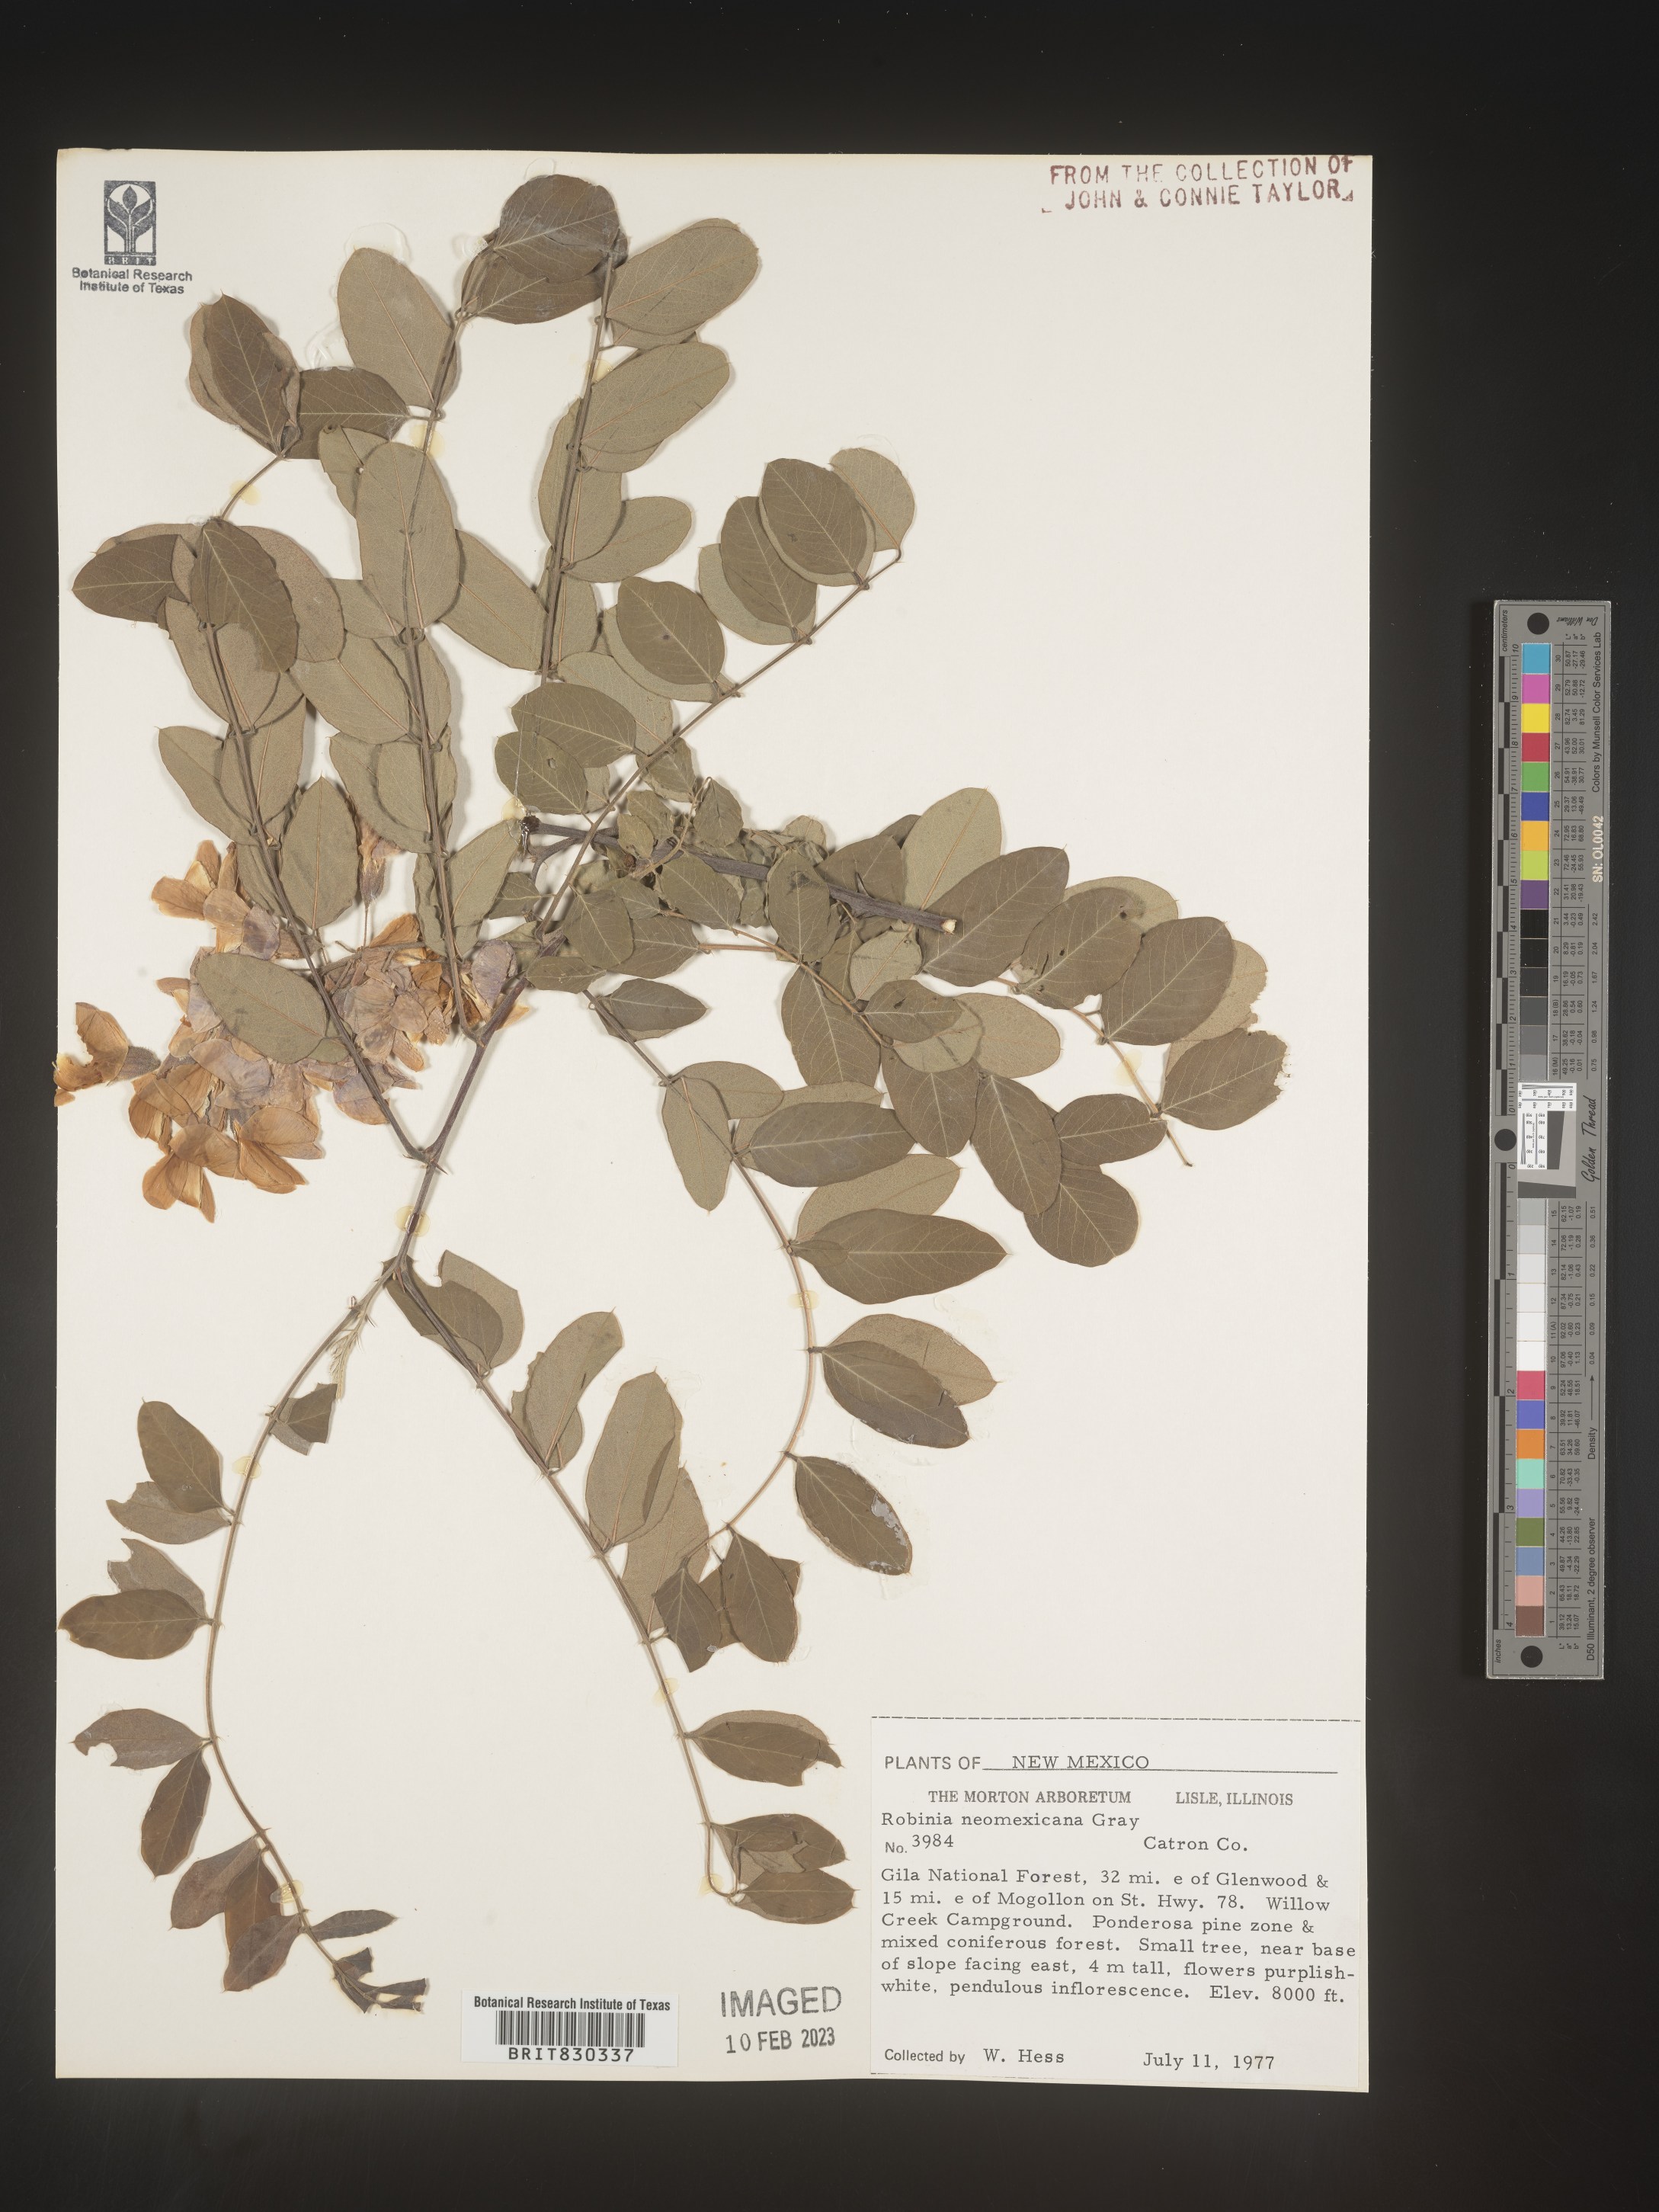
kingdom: Plantae
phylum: Tracheophyta
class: Magnoliopsida
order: Fabales
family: Fabaceae
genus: Robinia
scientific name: Robinia neomexicana
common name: New mexico locust
